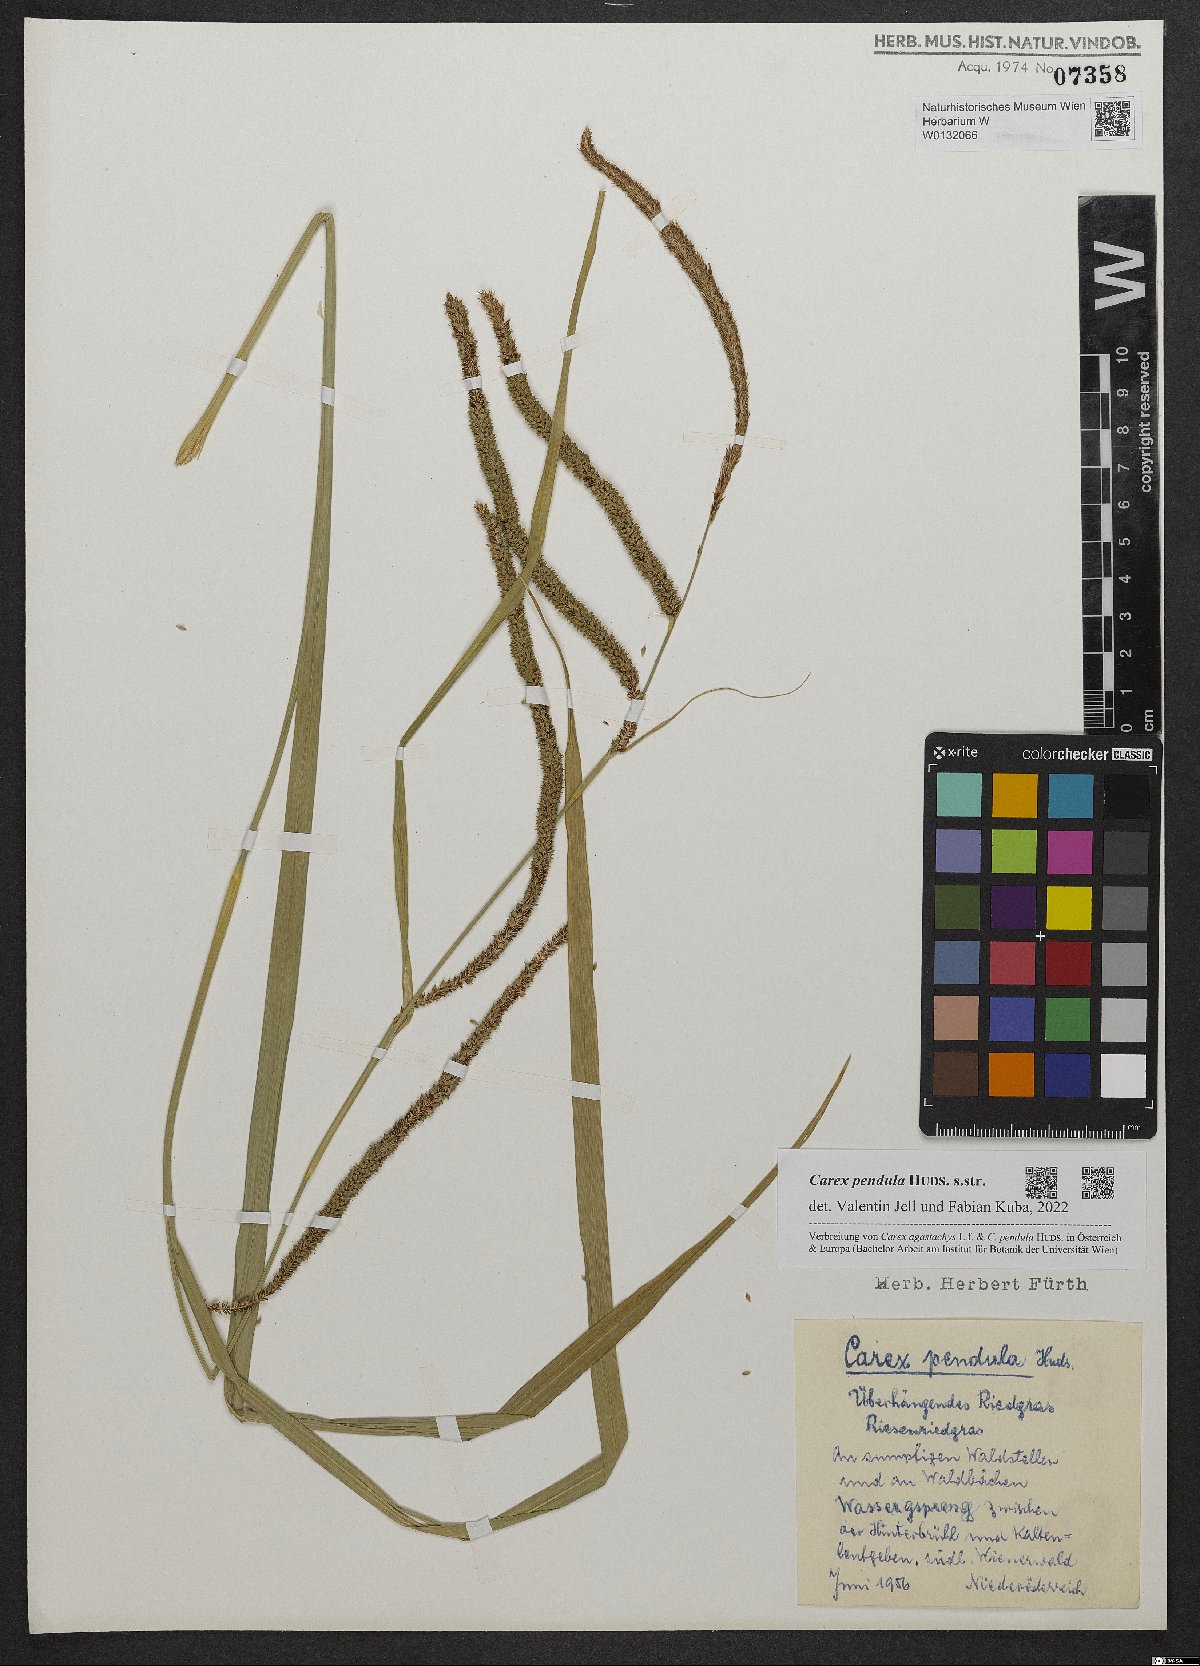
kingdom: Plantae
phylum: Tracheophyta
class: Liliopsida
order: Poales
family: Cyperaceae
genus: Carex
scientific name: Carex pendula
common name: Pendulous sedge
